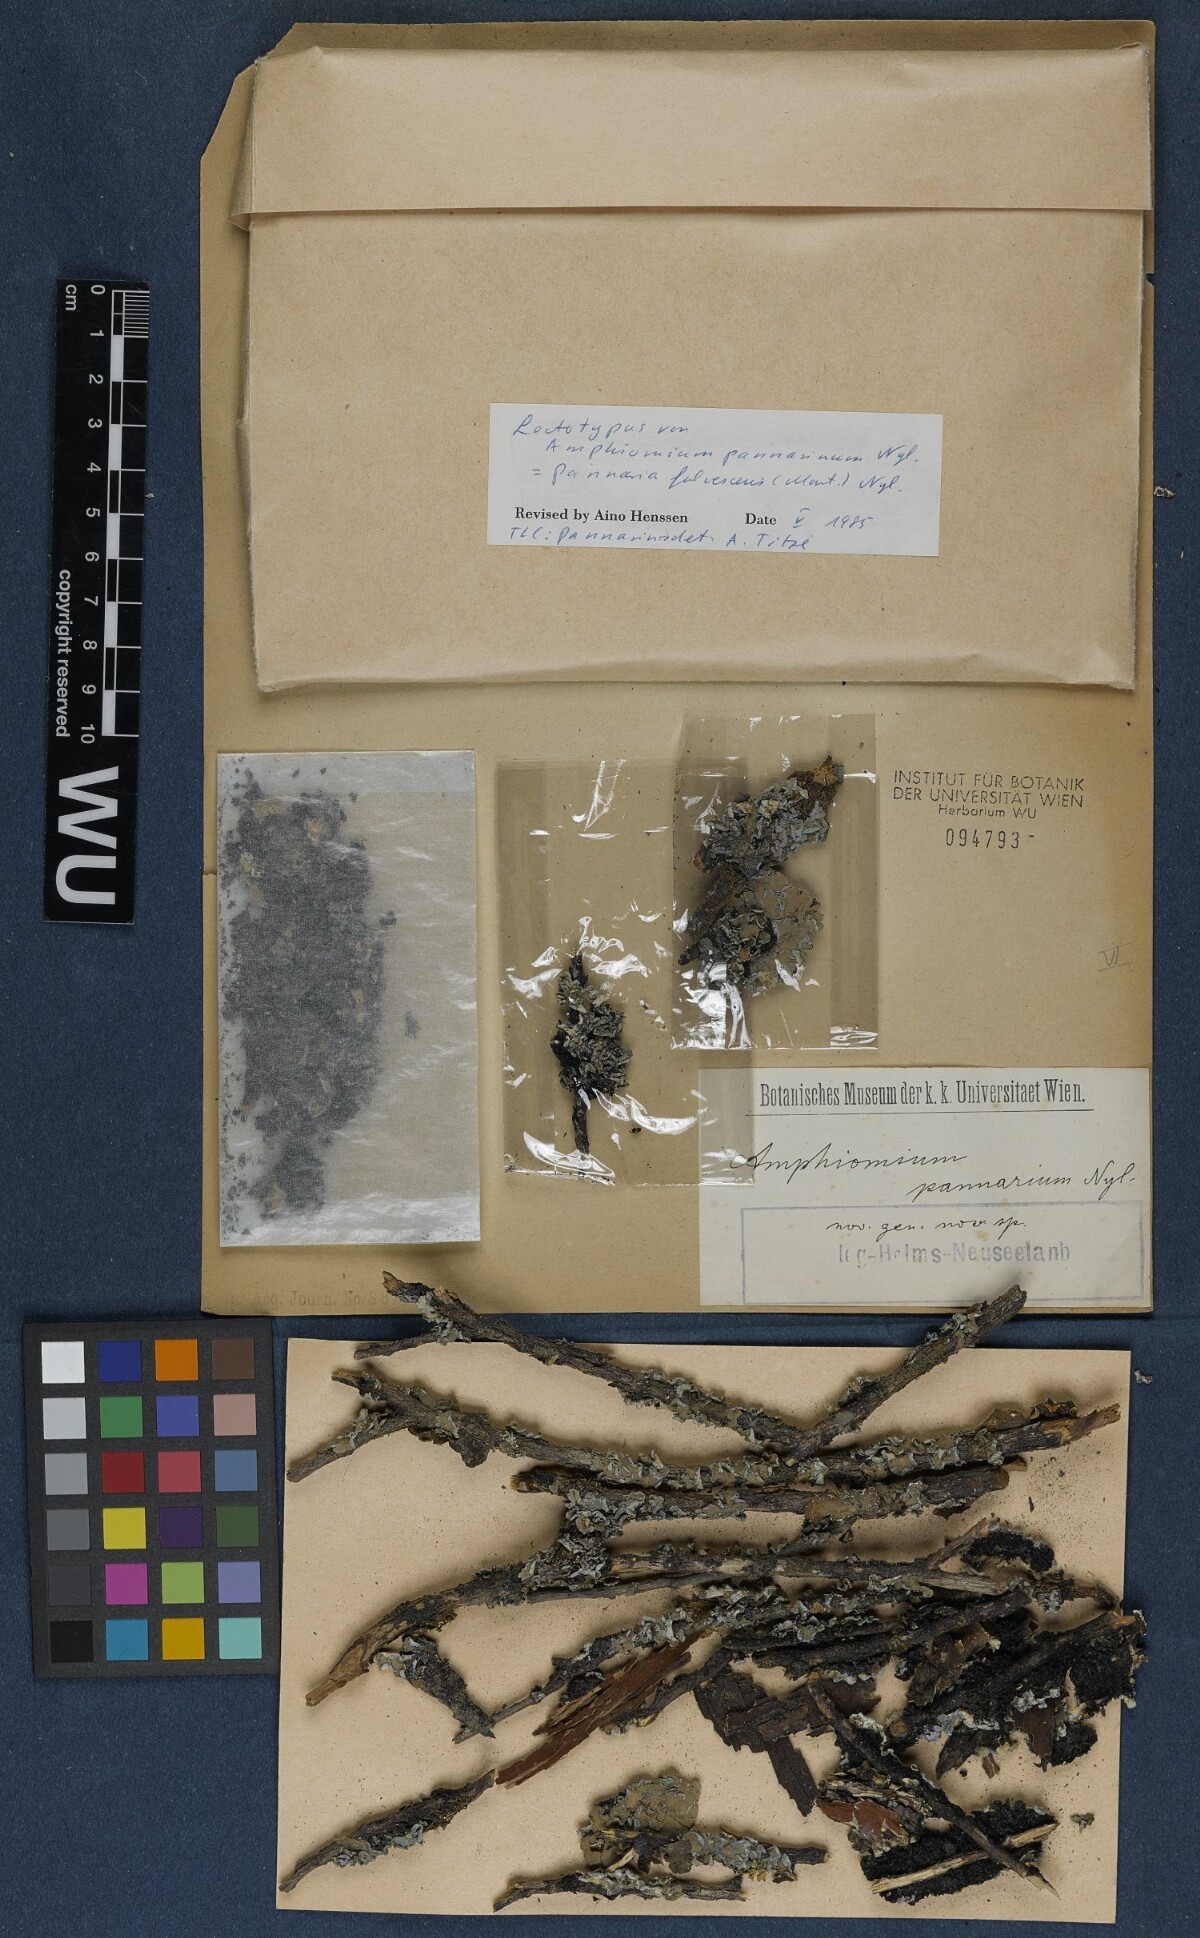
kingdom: Fungi
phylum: Ascomycota
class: Lecanoromycetes
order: Peltigerales
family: Pannariaceae
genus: Pannaria
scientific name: Pannaria
